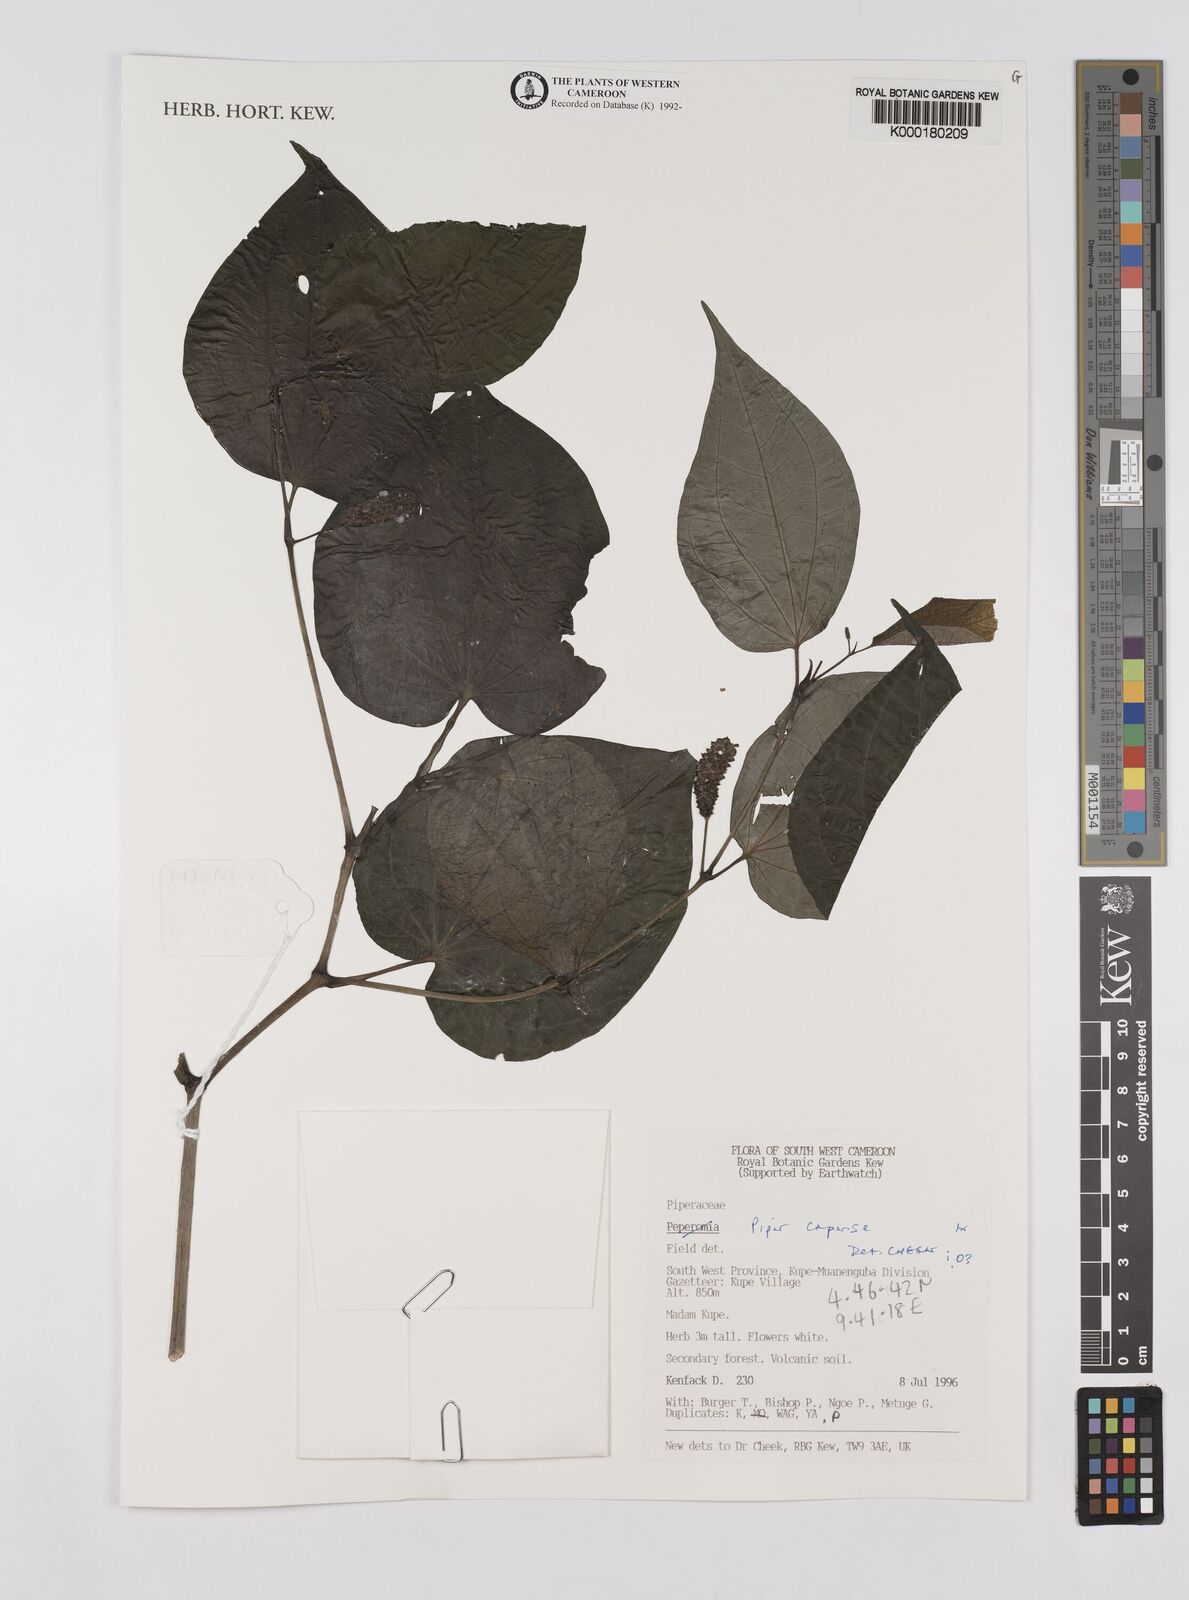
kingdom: Plantae
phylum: Tracheophyta
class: Magnoliopsida
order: Piperales
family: Piperaceae
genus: Piper
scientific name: Piper capense
